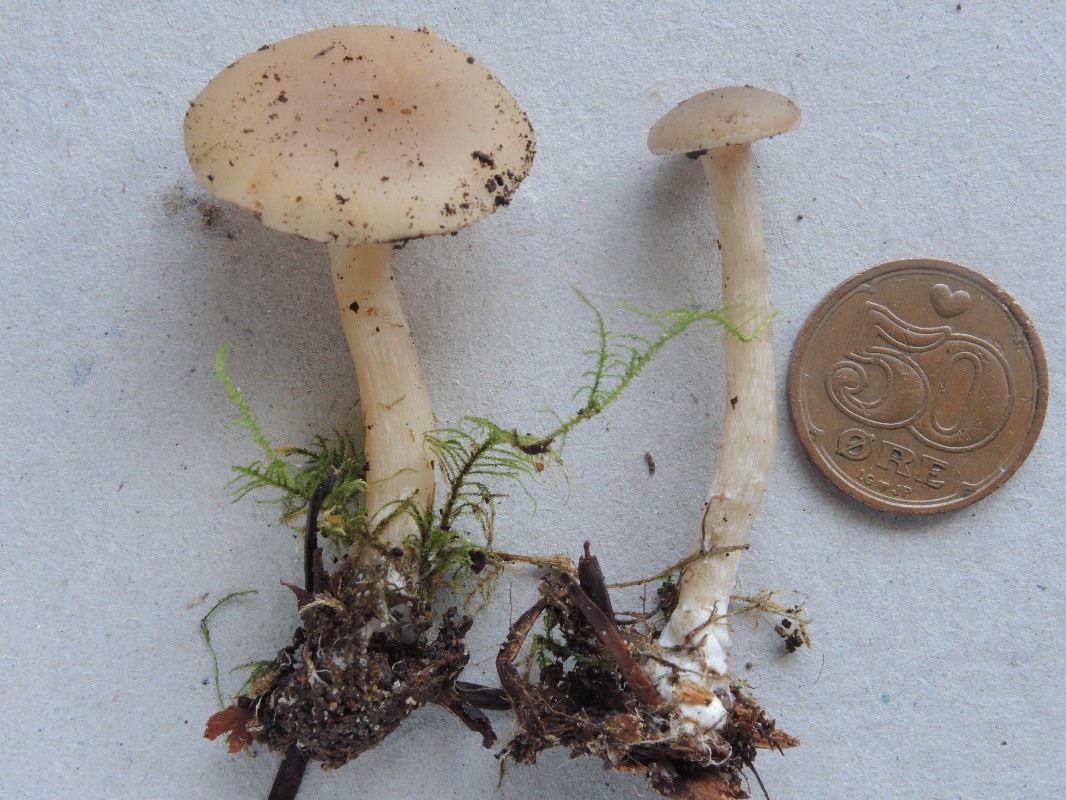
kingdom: Fungi
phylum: Basidiomycota
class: Agaricomycetes
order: Agaricales
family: Tricholomataceae
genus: Clitocybe
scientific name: Clitocybe fragrans
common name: vellugtende tragthat
